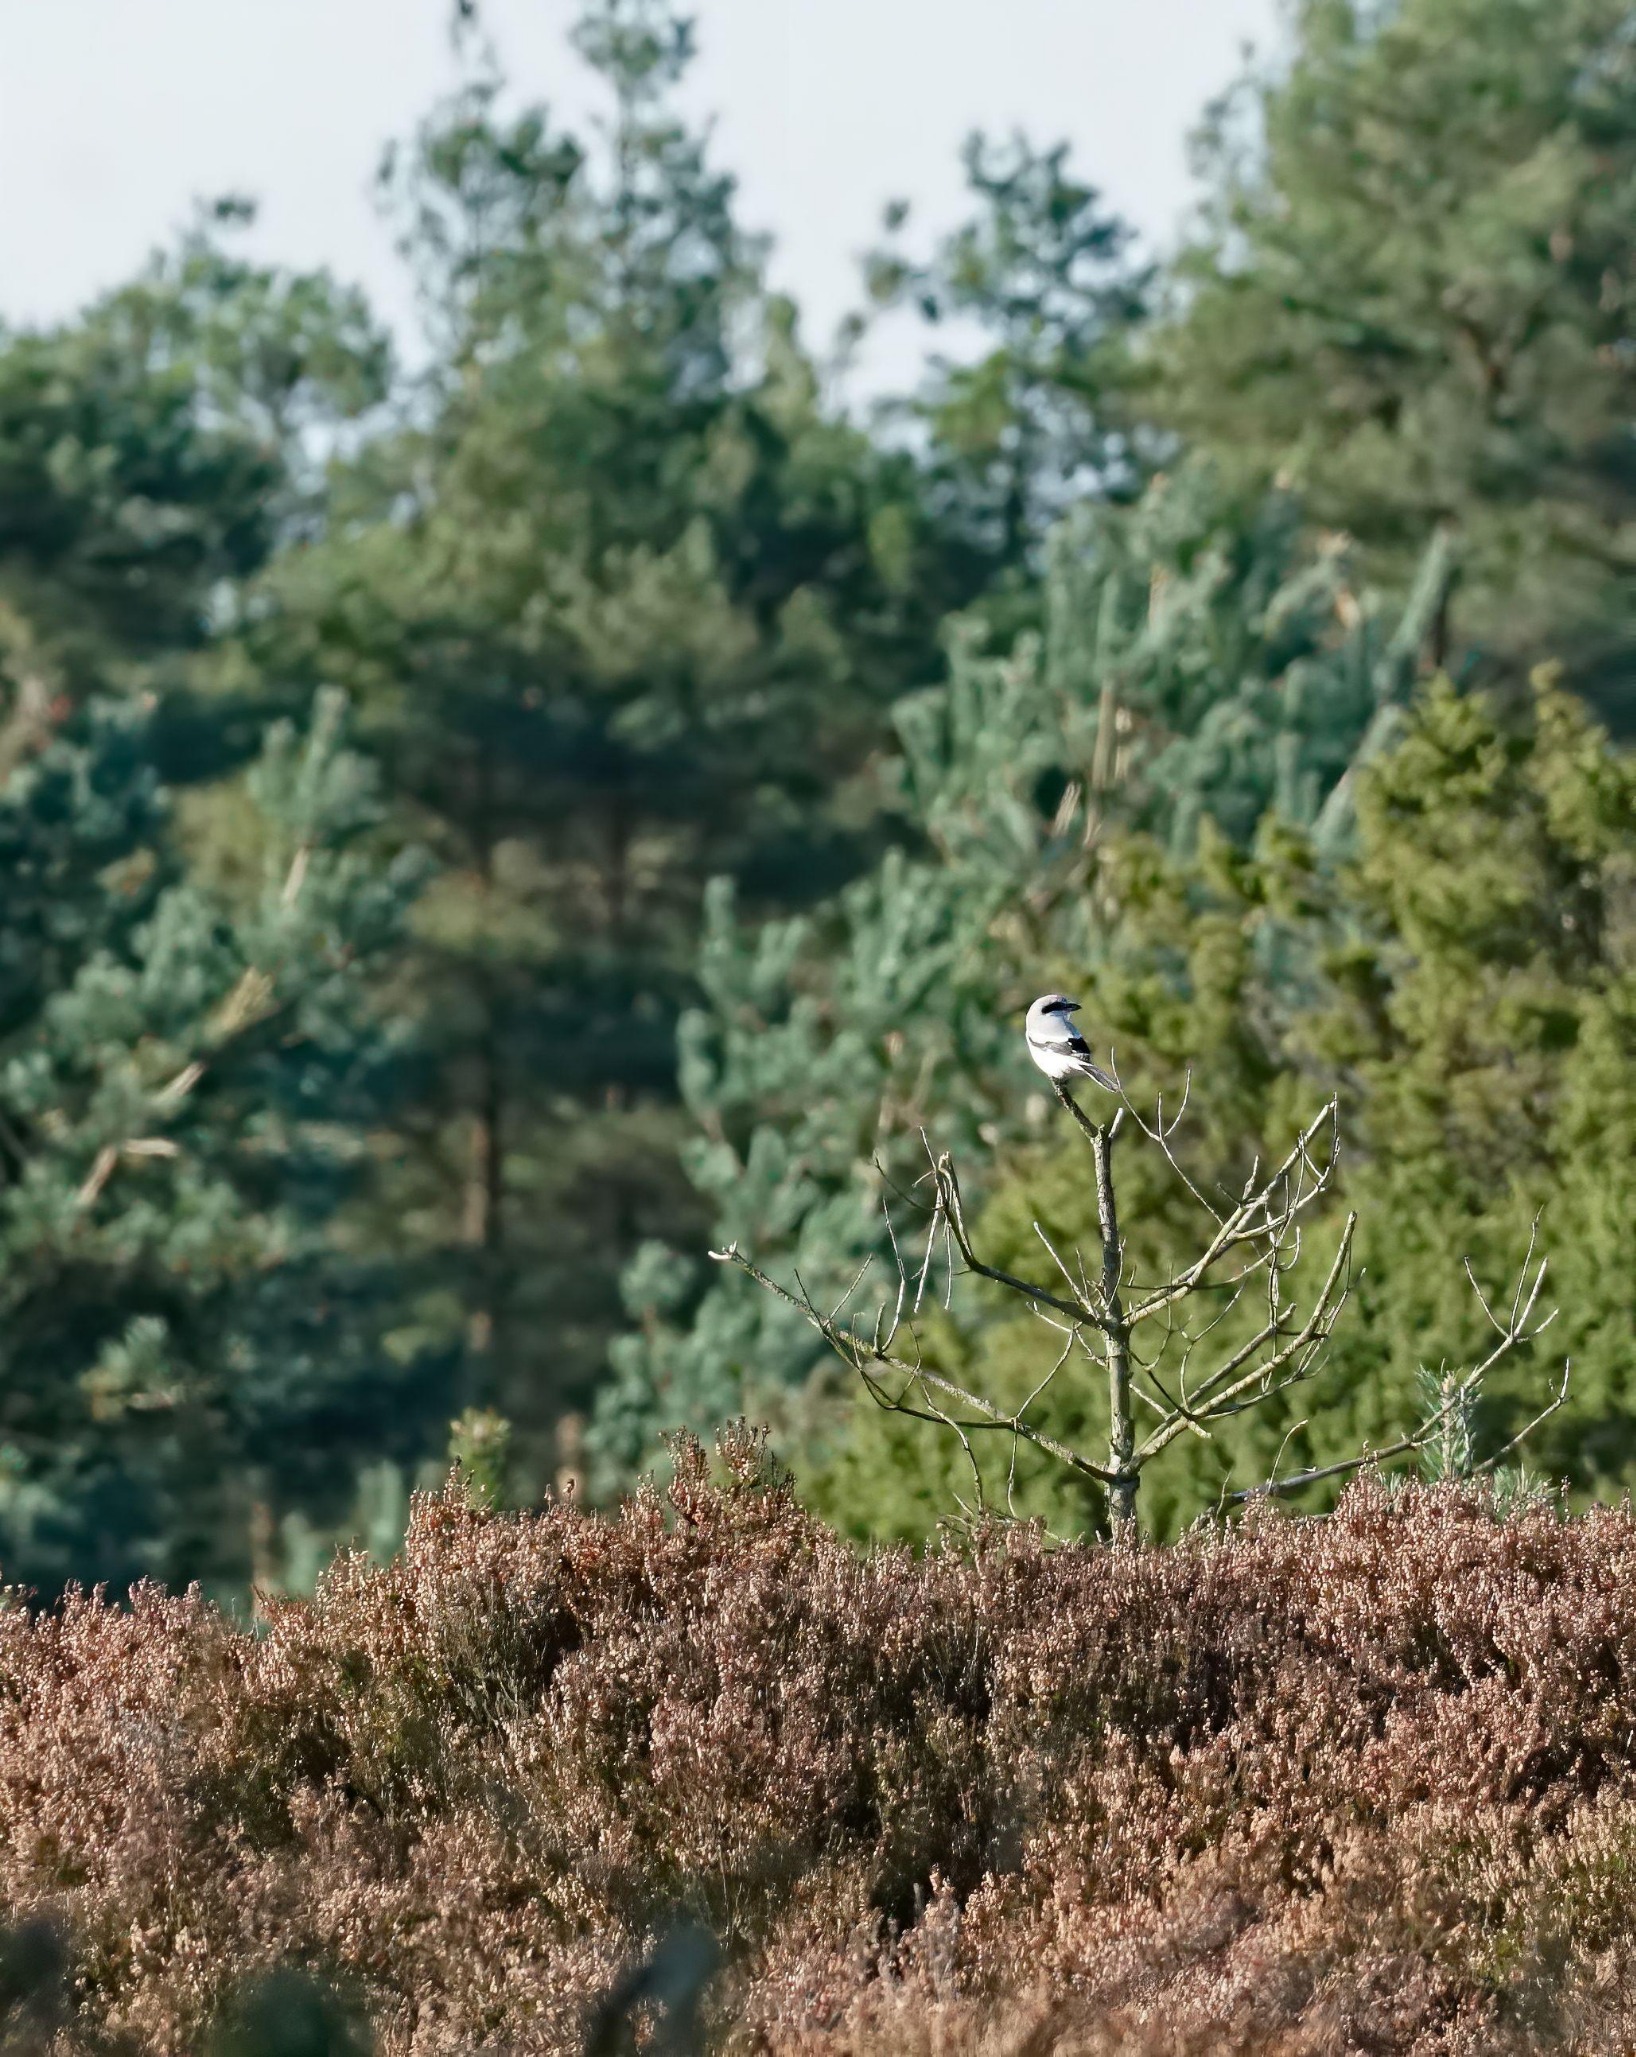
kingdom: Animalia
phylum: Chordata
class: Aves
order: Passeriformes
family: Laniidae
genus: Lanius
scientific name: Lanius excubitor
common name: Stor tornskade
